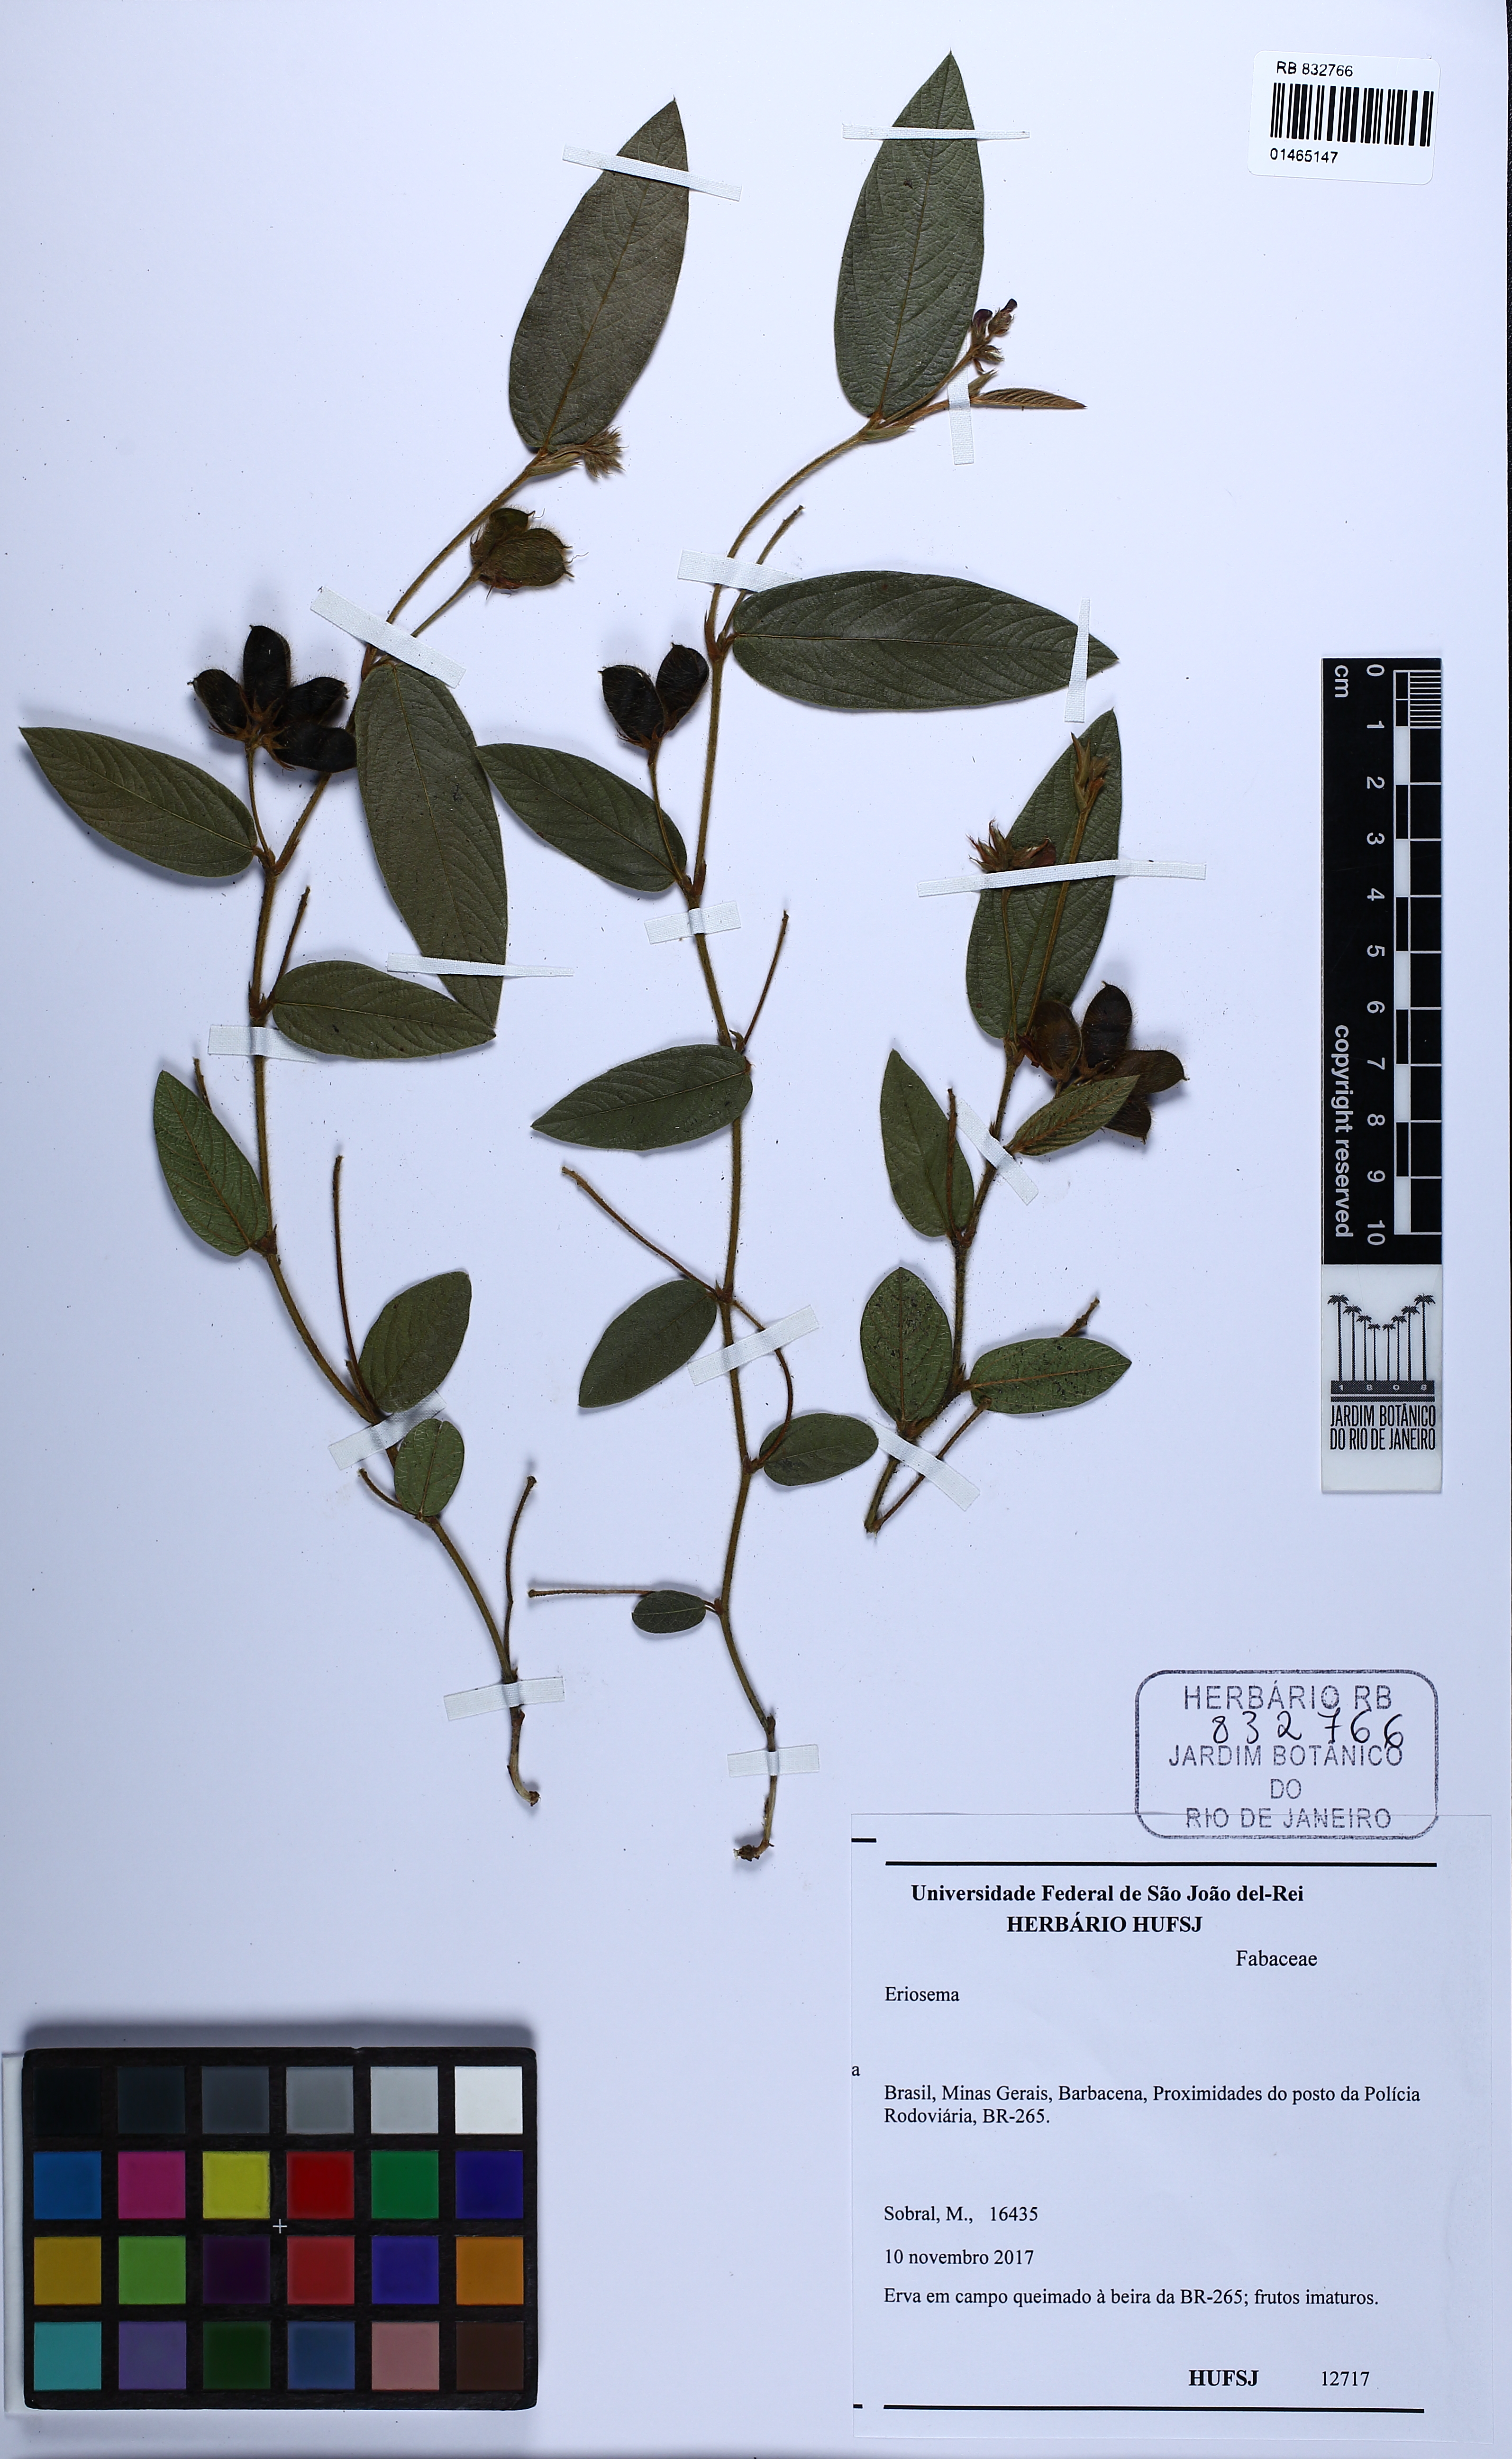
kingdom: Plantae
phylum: Tracheophyta
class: Magnoliopsida
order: Fabales
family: Fabaceae
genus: Eriosema
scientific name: Eriosema
